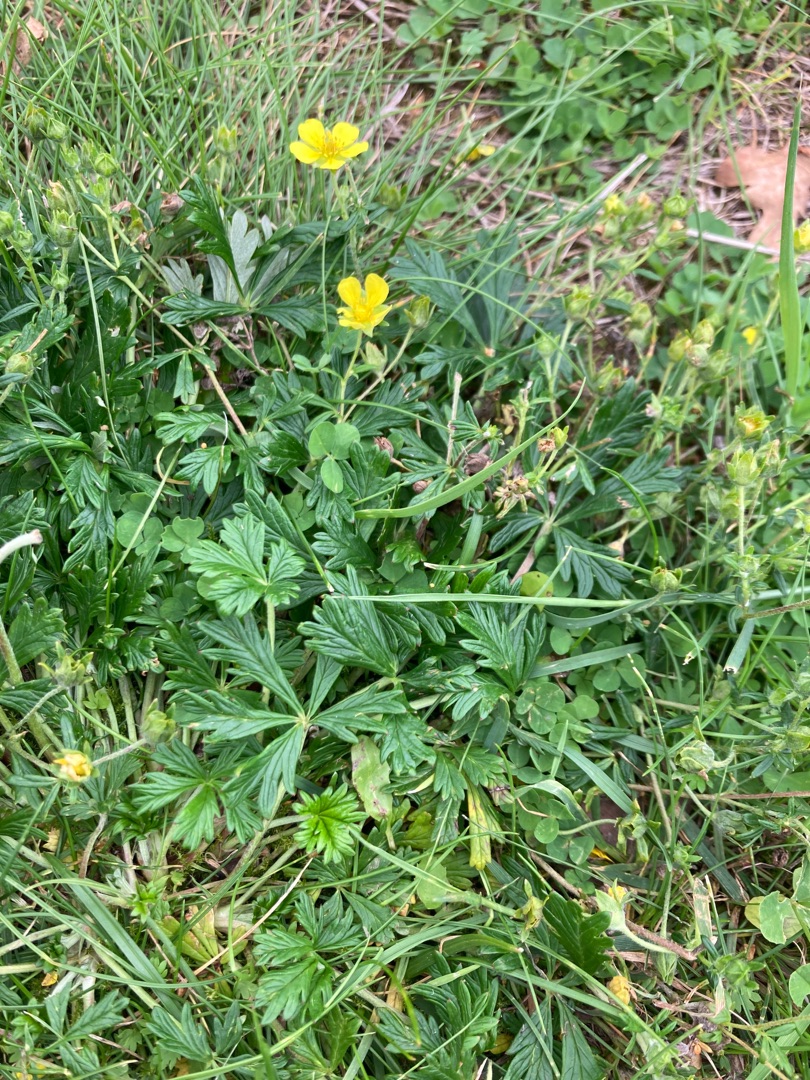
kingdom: Plantae
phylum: Tracheophyta
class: Magnoliopsida
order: Rosales
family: Rosaceae
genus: Potentilla
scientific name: Potentilla argentea
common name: Sølv-potentil
